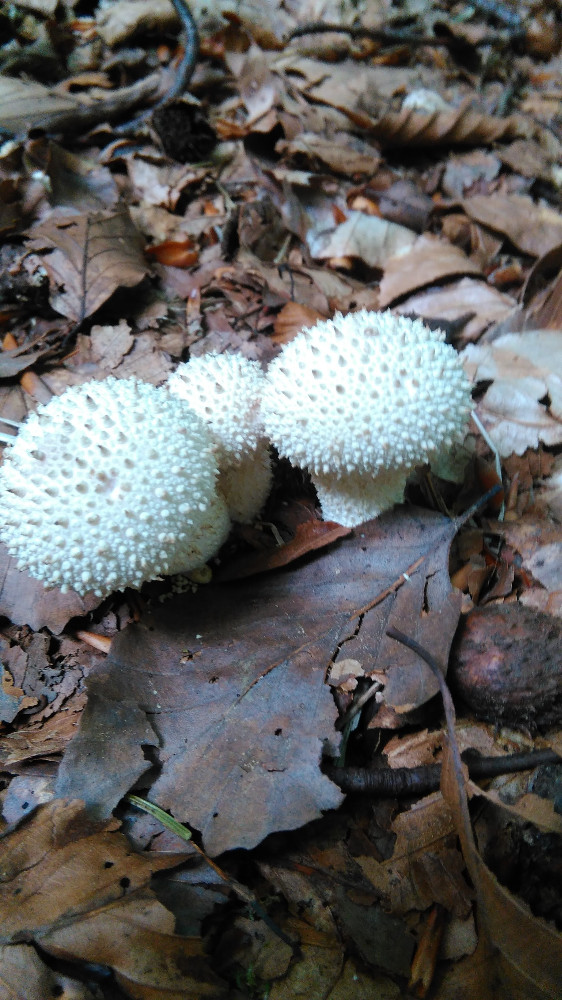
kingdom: Fungi
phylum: Basidiomycota
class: Agaricomycetes
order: Agaricales
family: Lycoperdaceae
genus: Lycoperdon
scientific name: Lycoperdon perlatum
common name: krystal-støvbold
